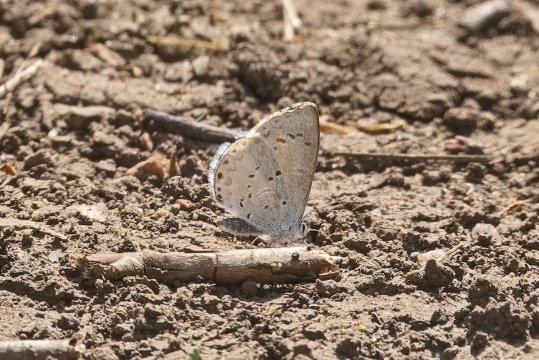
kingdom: Animalia
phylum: Arthropoda
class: Insecta
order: Lepidoptera
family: Lycaenidae
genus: Cyaniris
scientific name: Cyaniris neglecta
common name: Summer Azure
